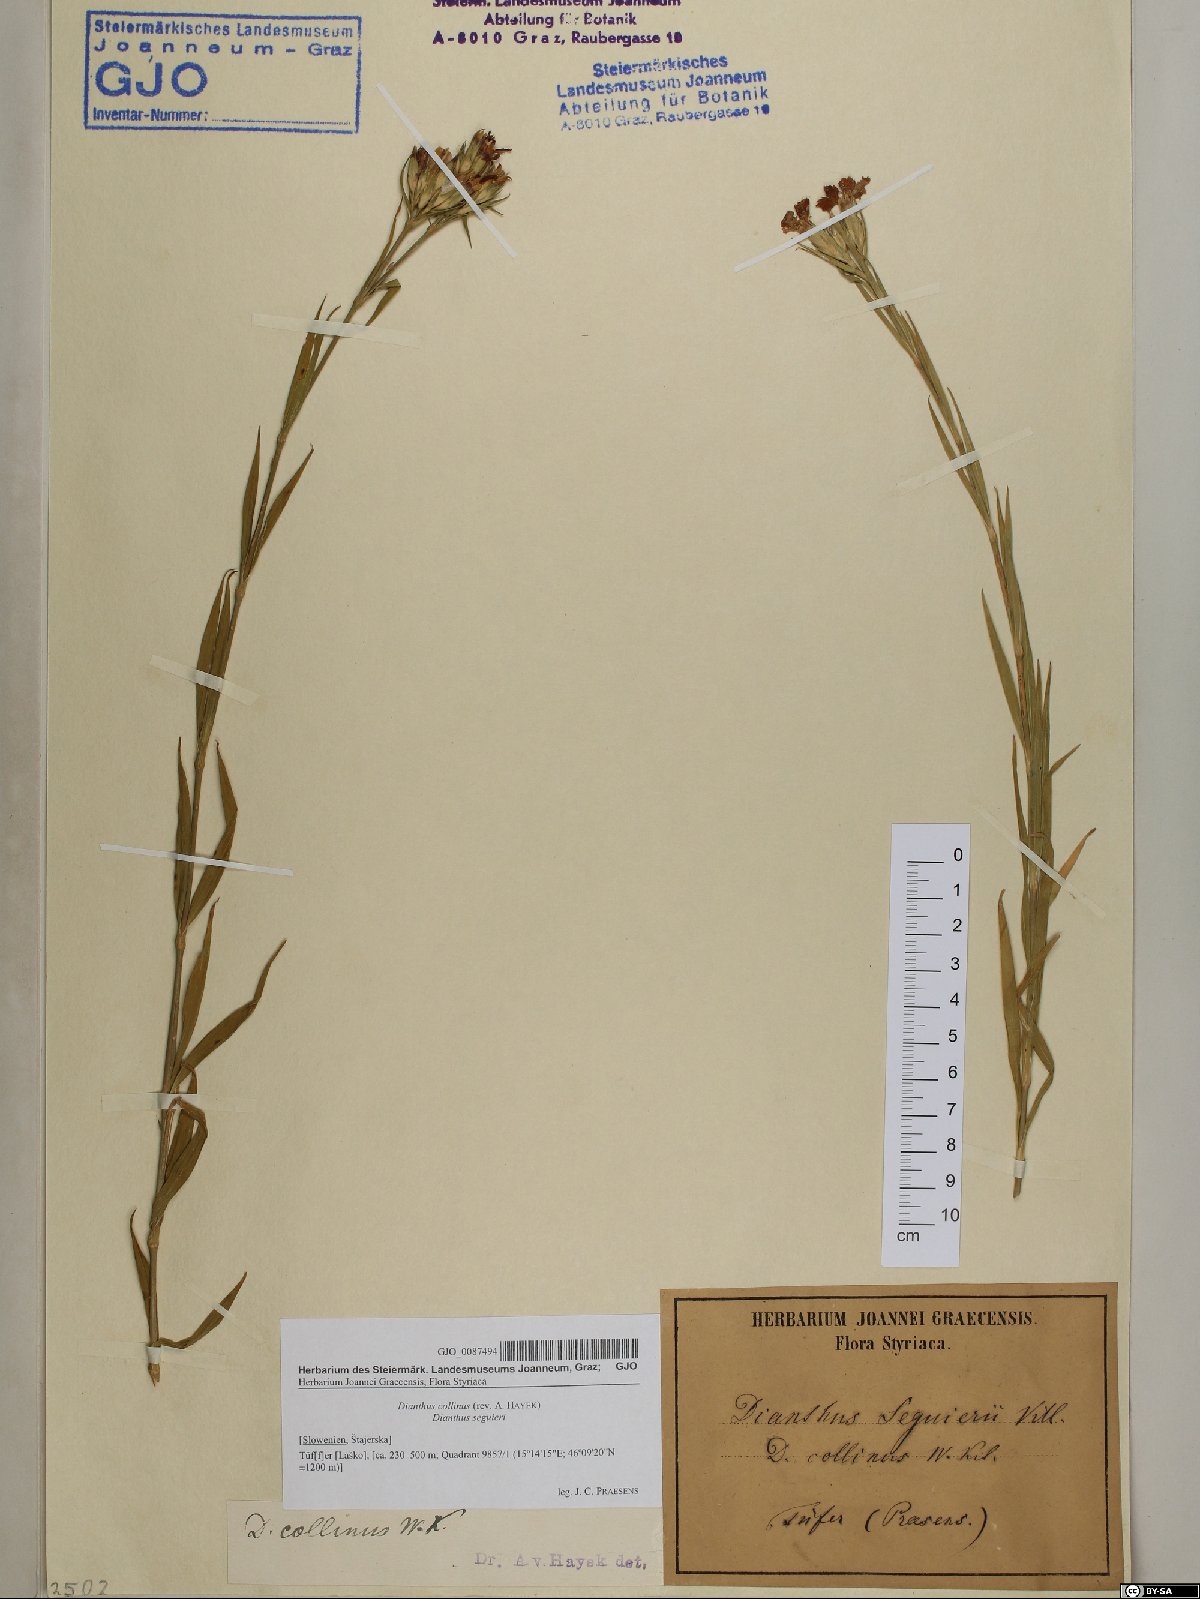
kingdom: Plantae
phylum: Tracheophyta
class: Magnoliopsida
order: Caryophyllales
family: Caryophyllaceae
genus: Dianthus
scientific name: Dianthus collinus
